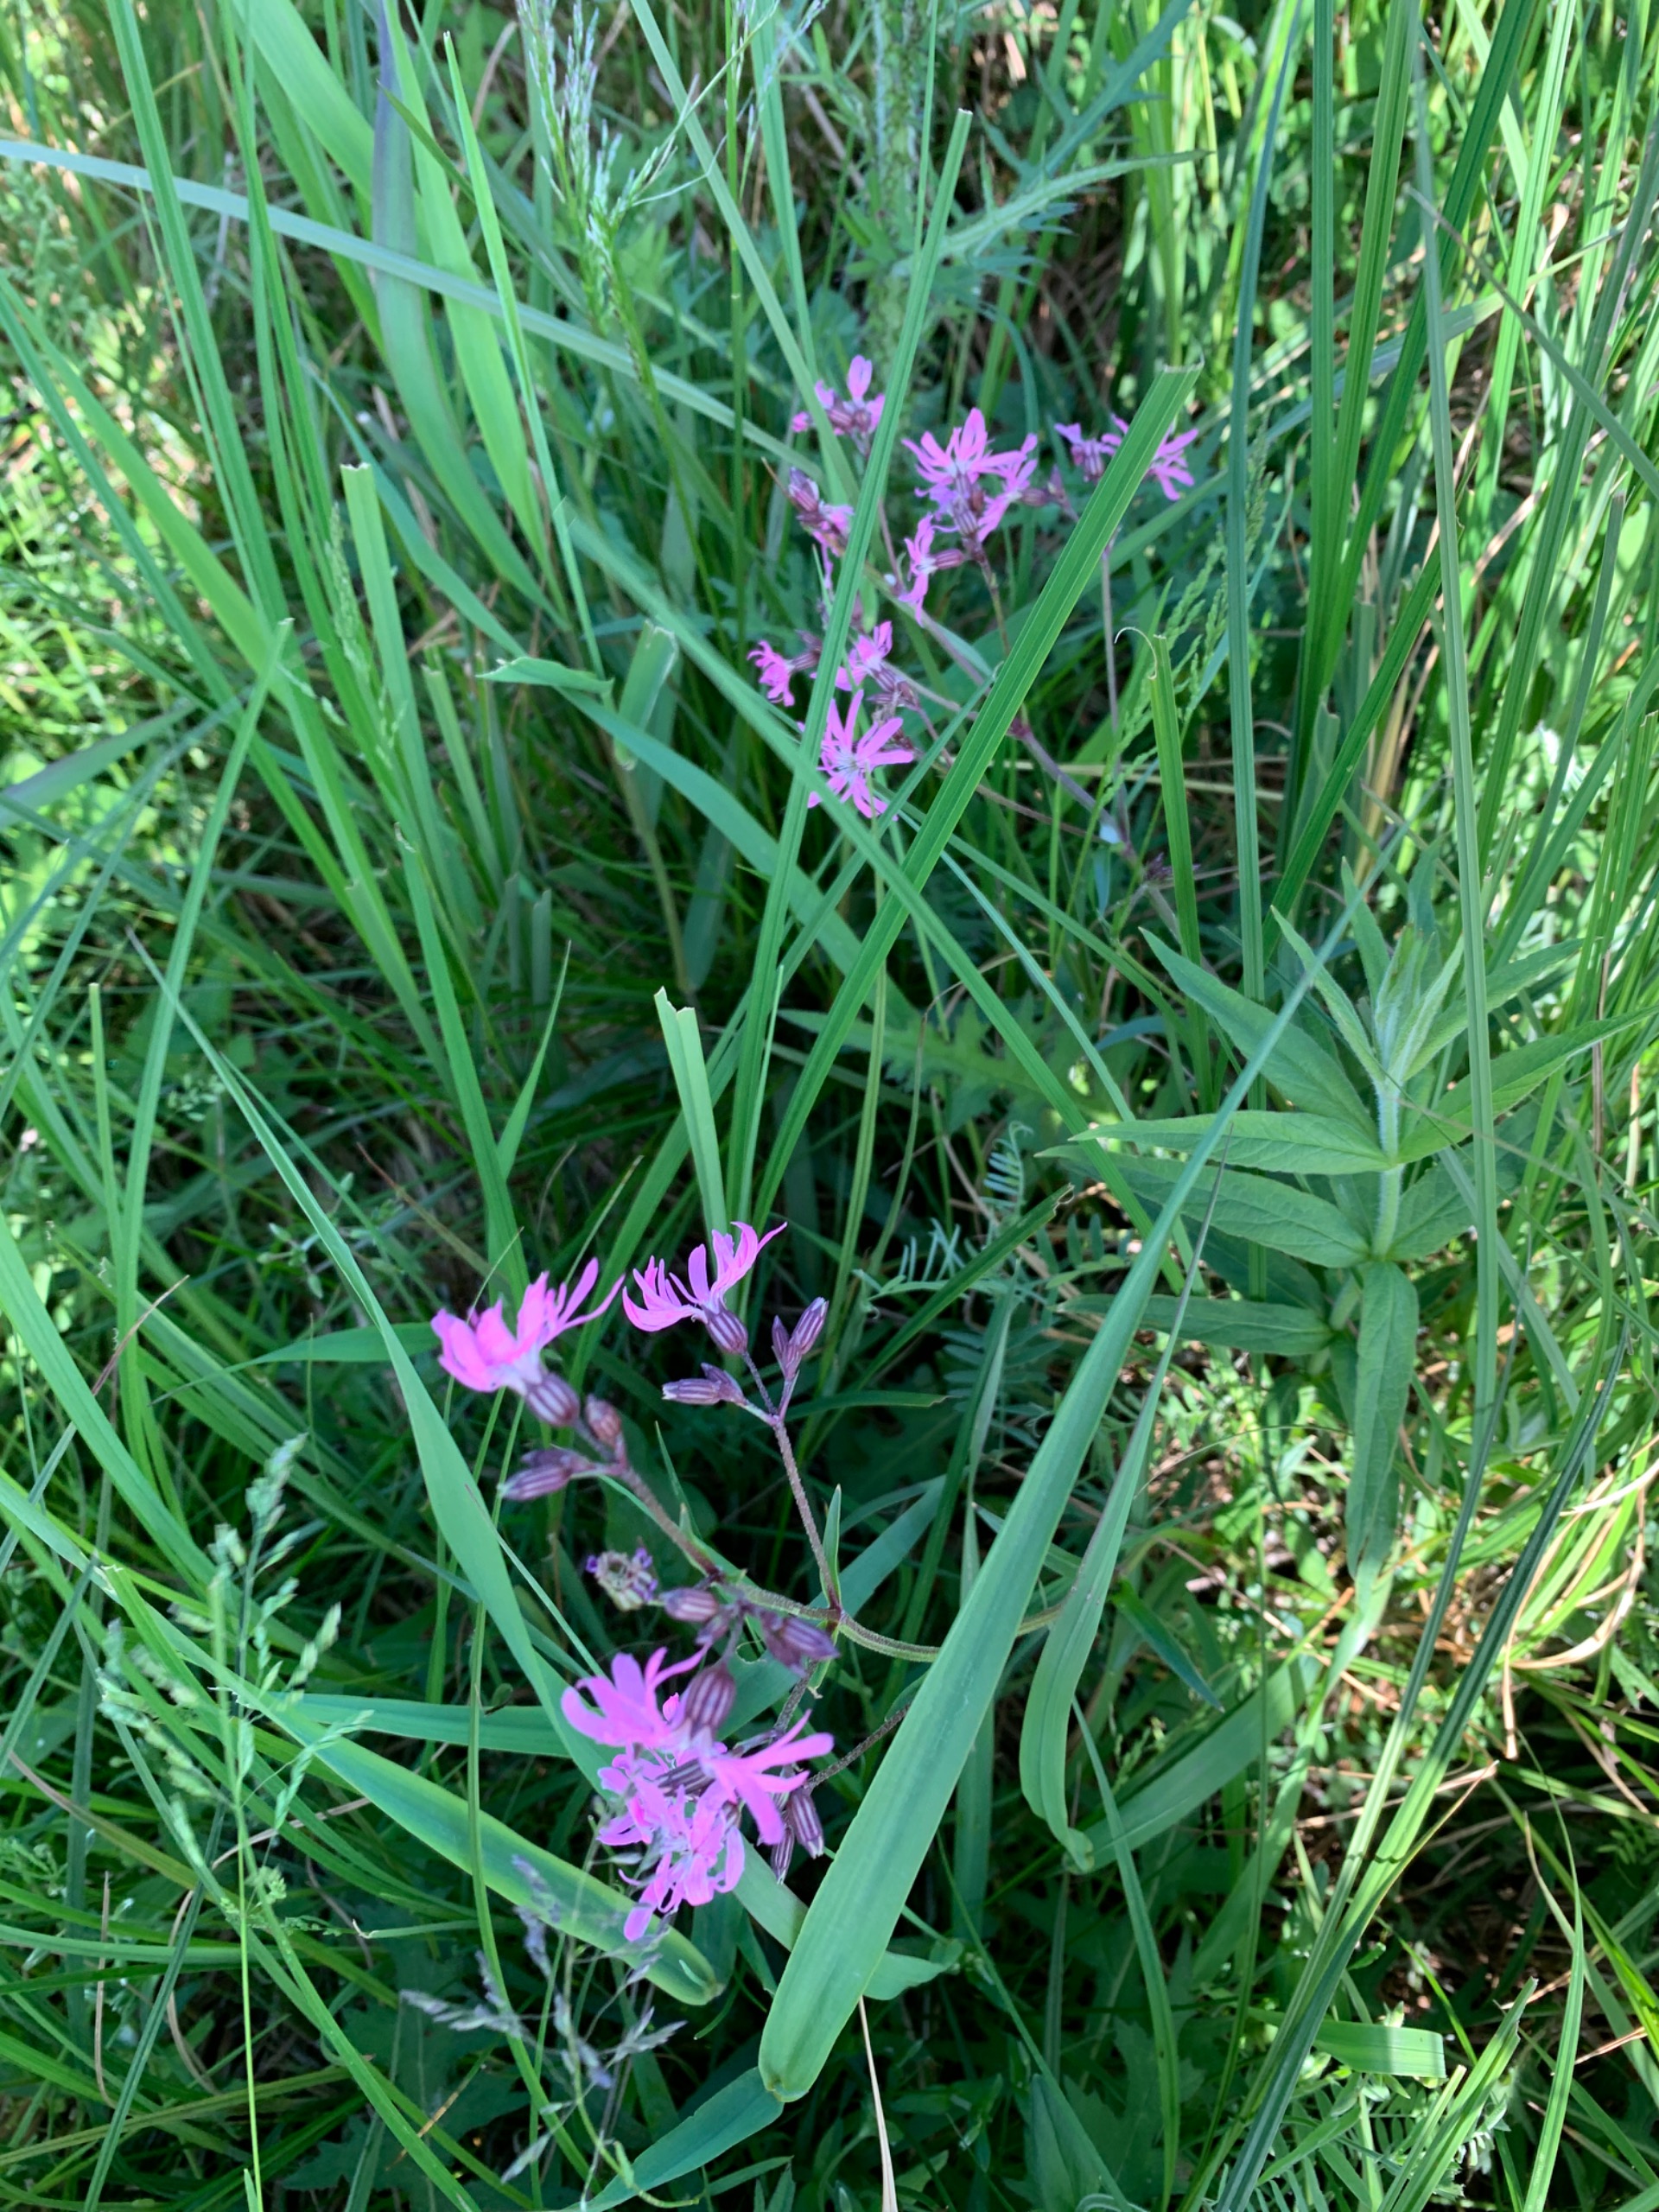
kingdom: Plantae
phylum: Tracheophyta
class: Magnoliopsida
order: Caryophyllales
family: Caryophyllaceae
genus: Silene
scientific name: Silene flos-cuculi
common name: Trævlekrone
